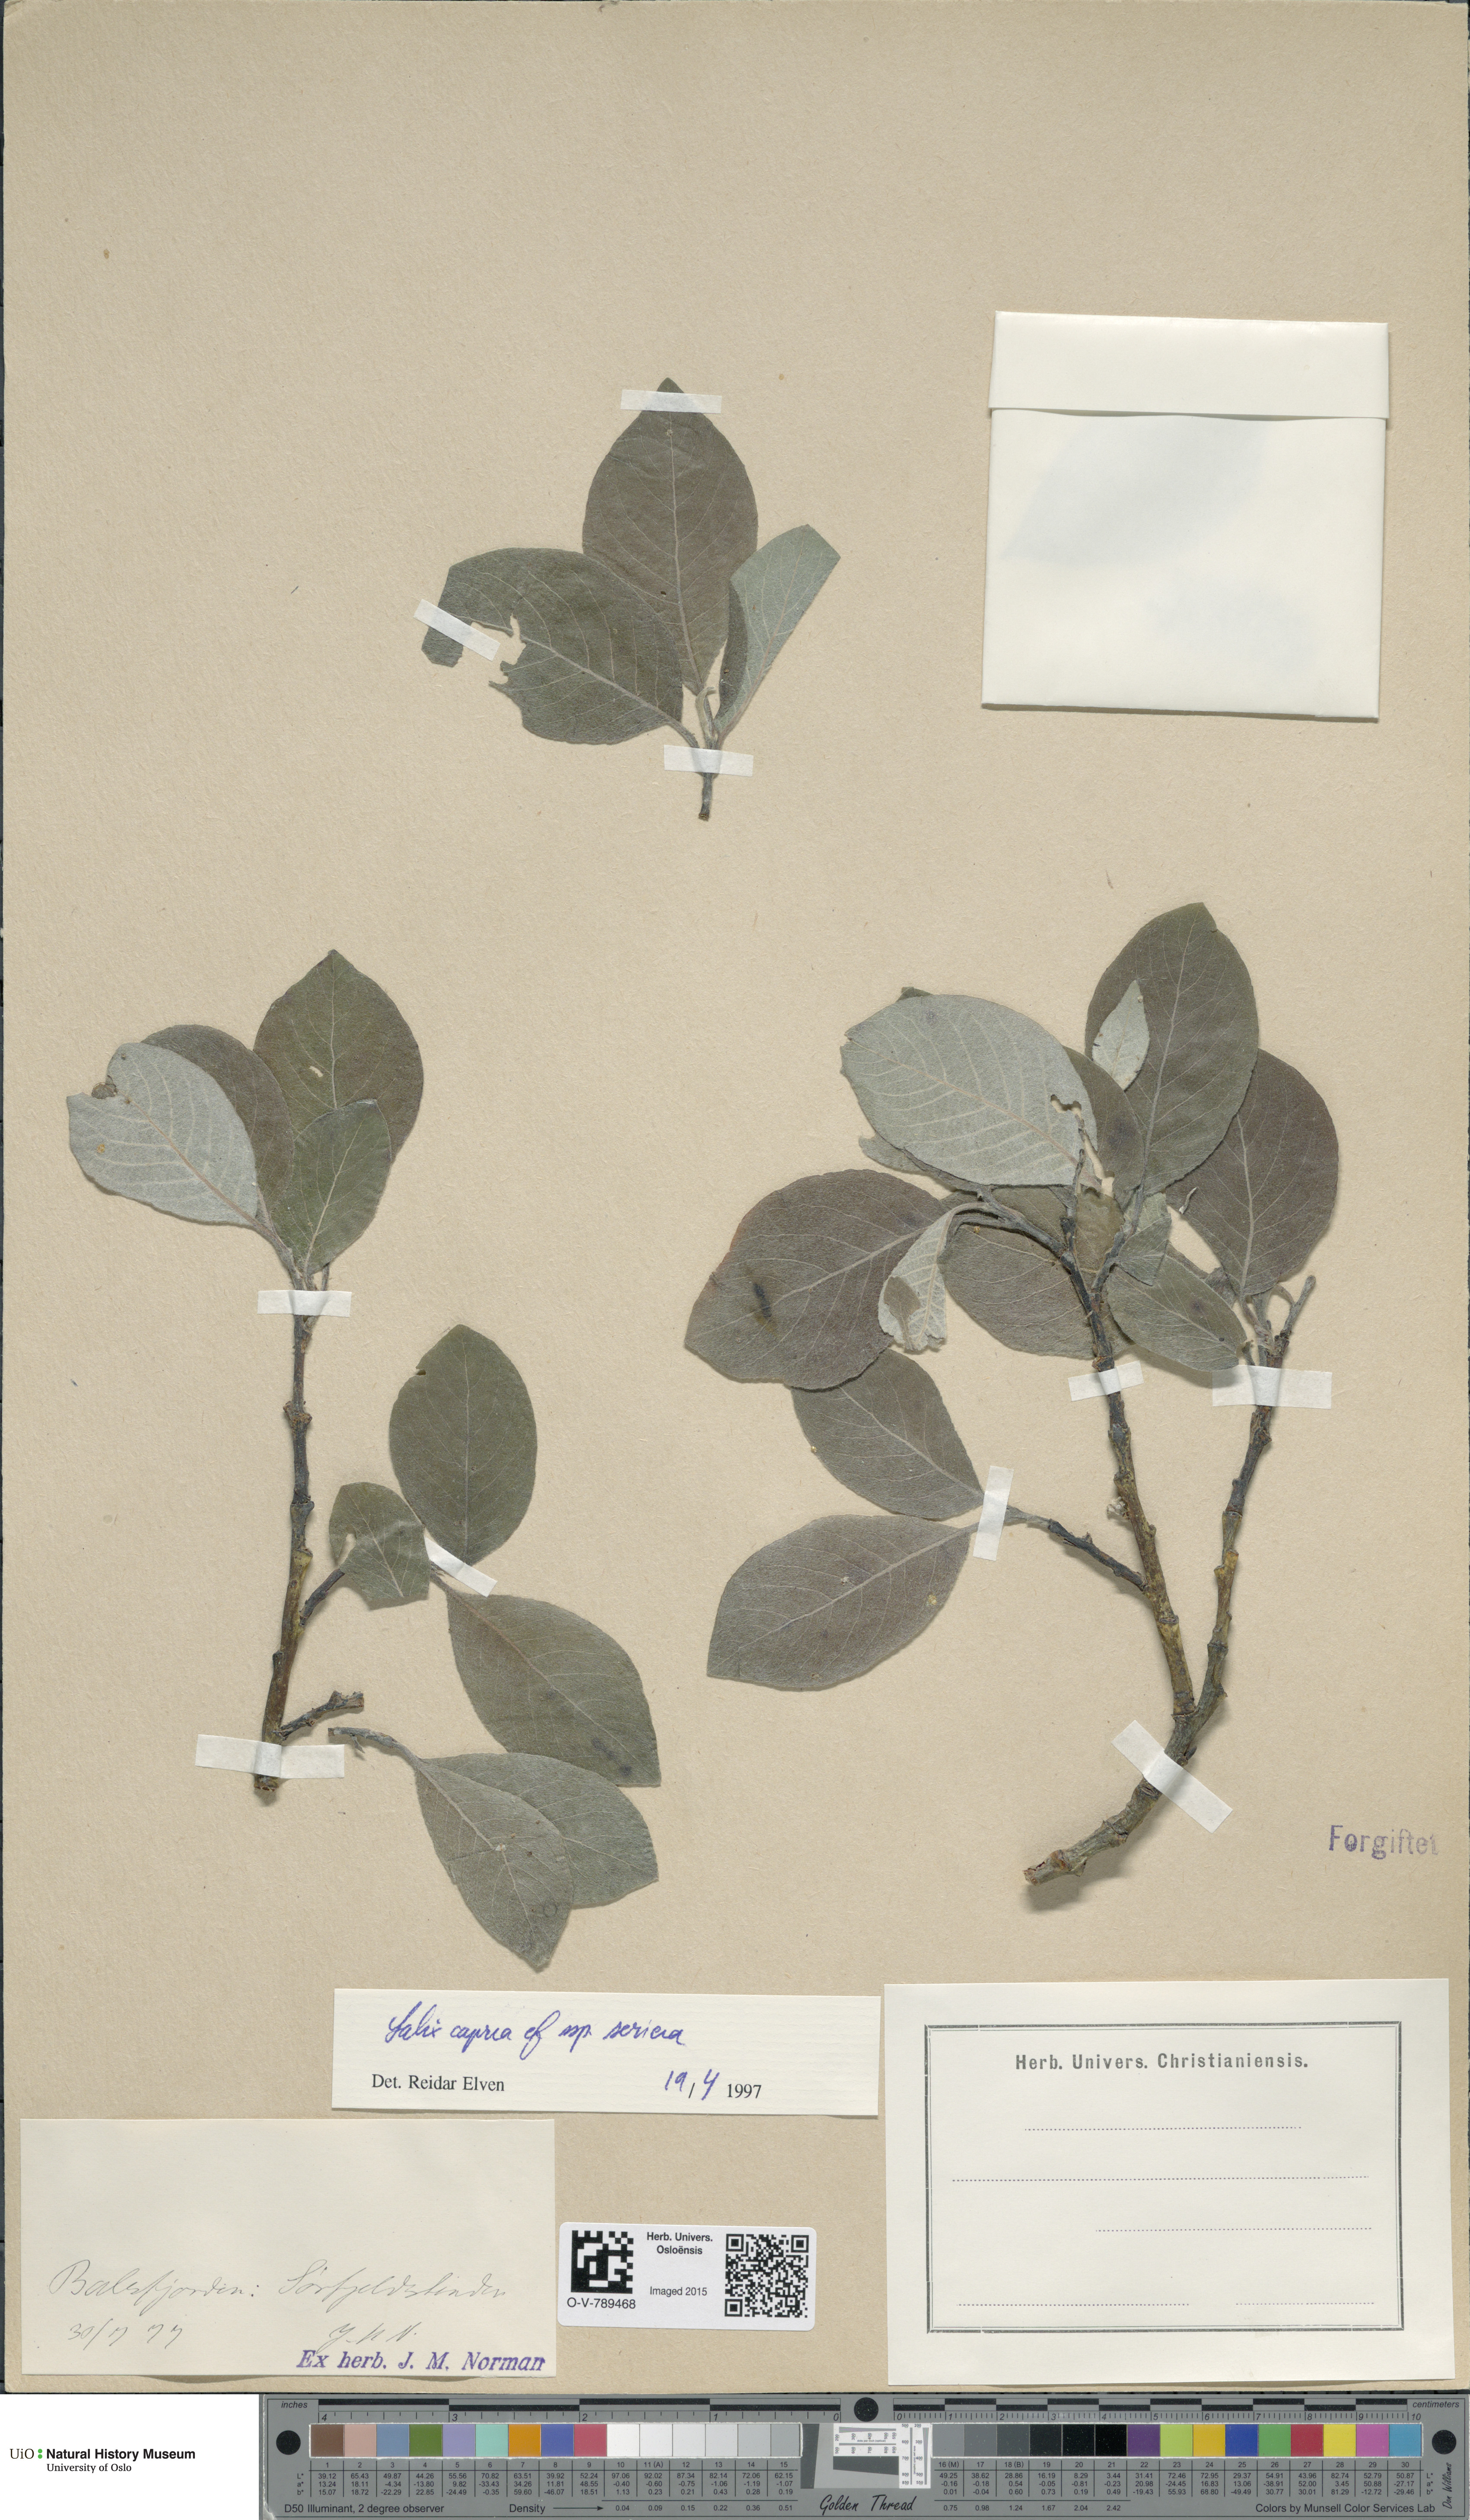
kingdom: Plantae
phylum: Tracheophyta
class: Magnoliopsida
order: Malpighiales
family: Salicaceae
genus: Salix
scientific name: Salix caprea
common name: Goat willow
